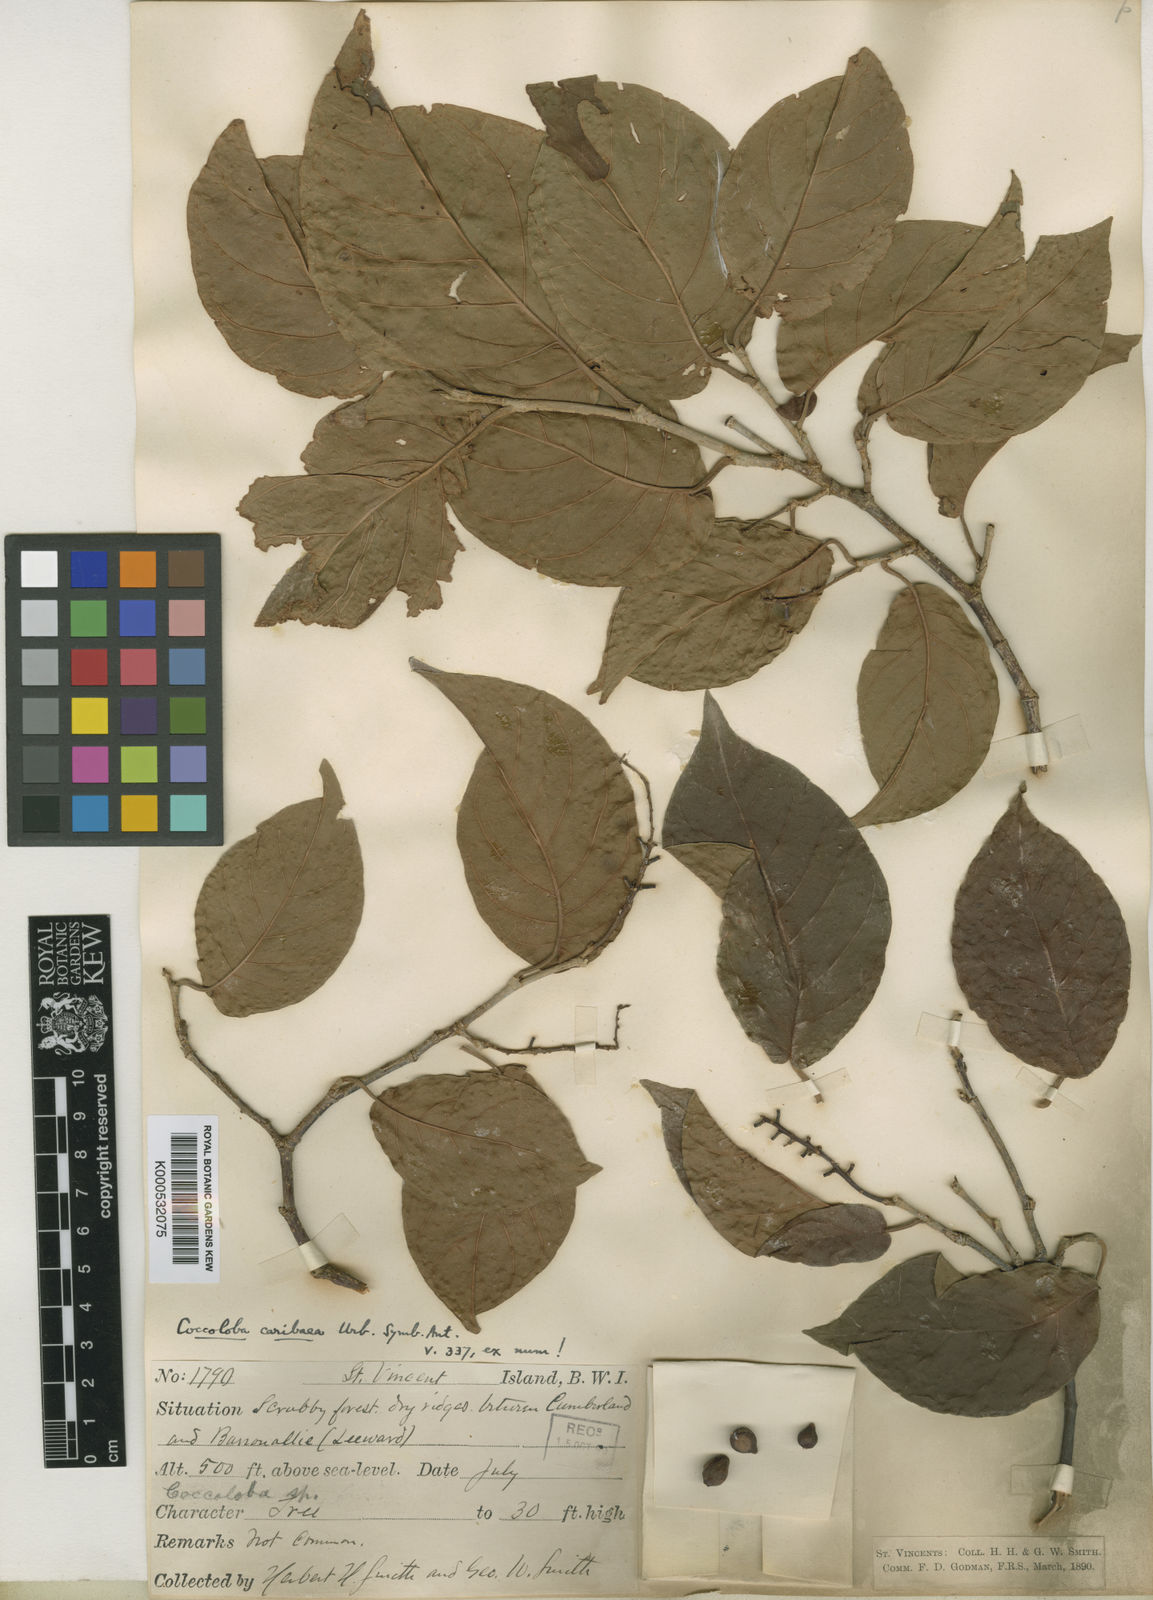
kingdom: Plantae
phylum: Tracheophyta
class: Magnoliopsida
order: Caryophyllales
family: Polygonaceae
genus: Coccoloba
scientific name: Coccoloba coronata
